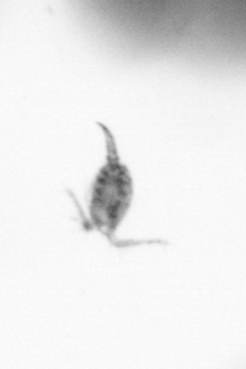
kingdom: Animalia
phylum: Arthropoda
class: Copepoda
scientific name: Copepoda
